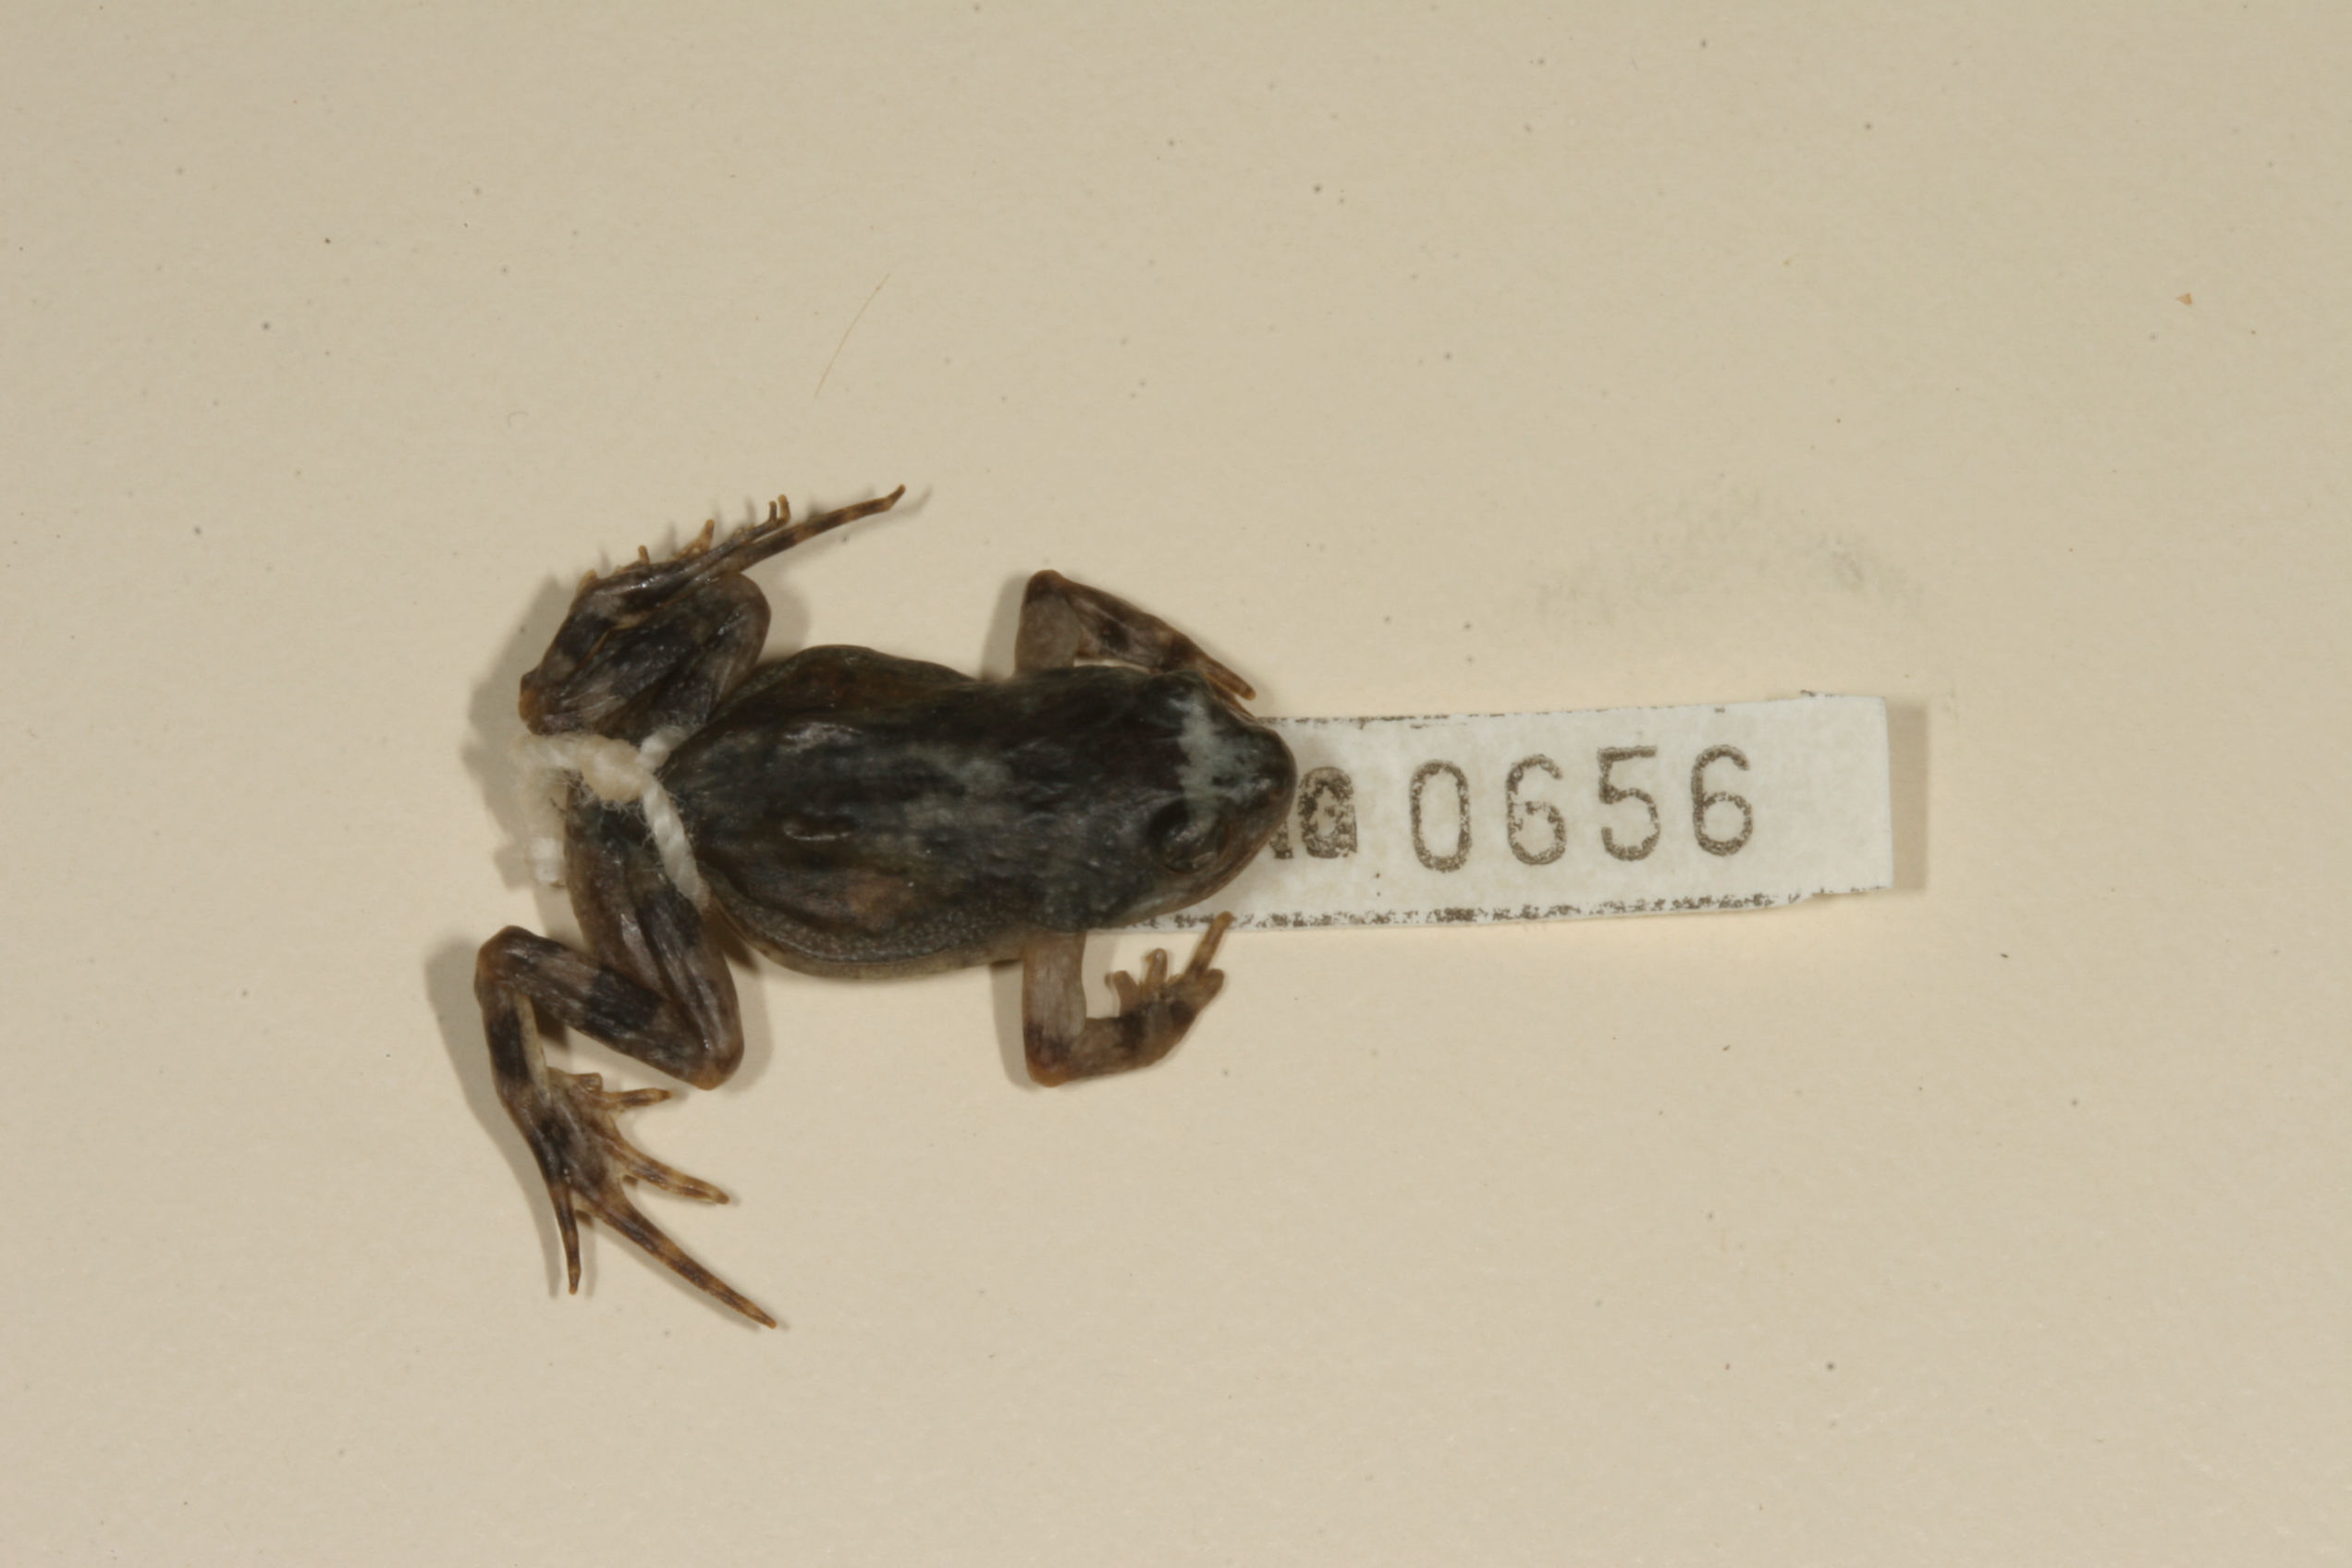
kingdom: Animalia
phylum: Chordata
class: Amphibia
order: Anura
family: Pyxicephalidae
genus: Cacosternum
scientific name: Cacosternum namaquense
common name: Namaqua caco
